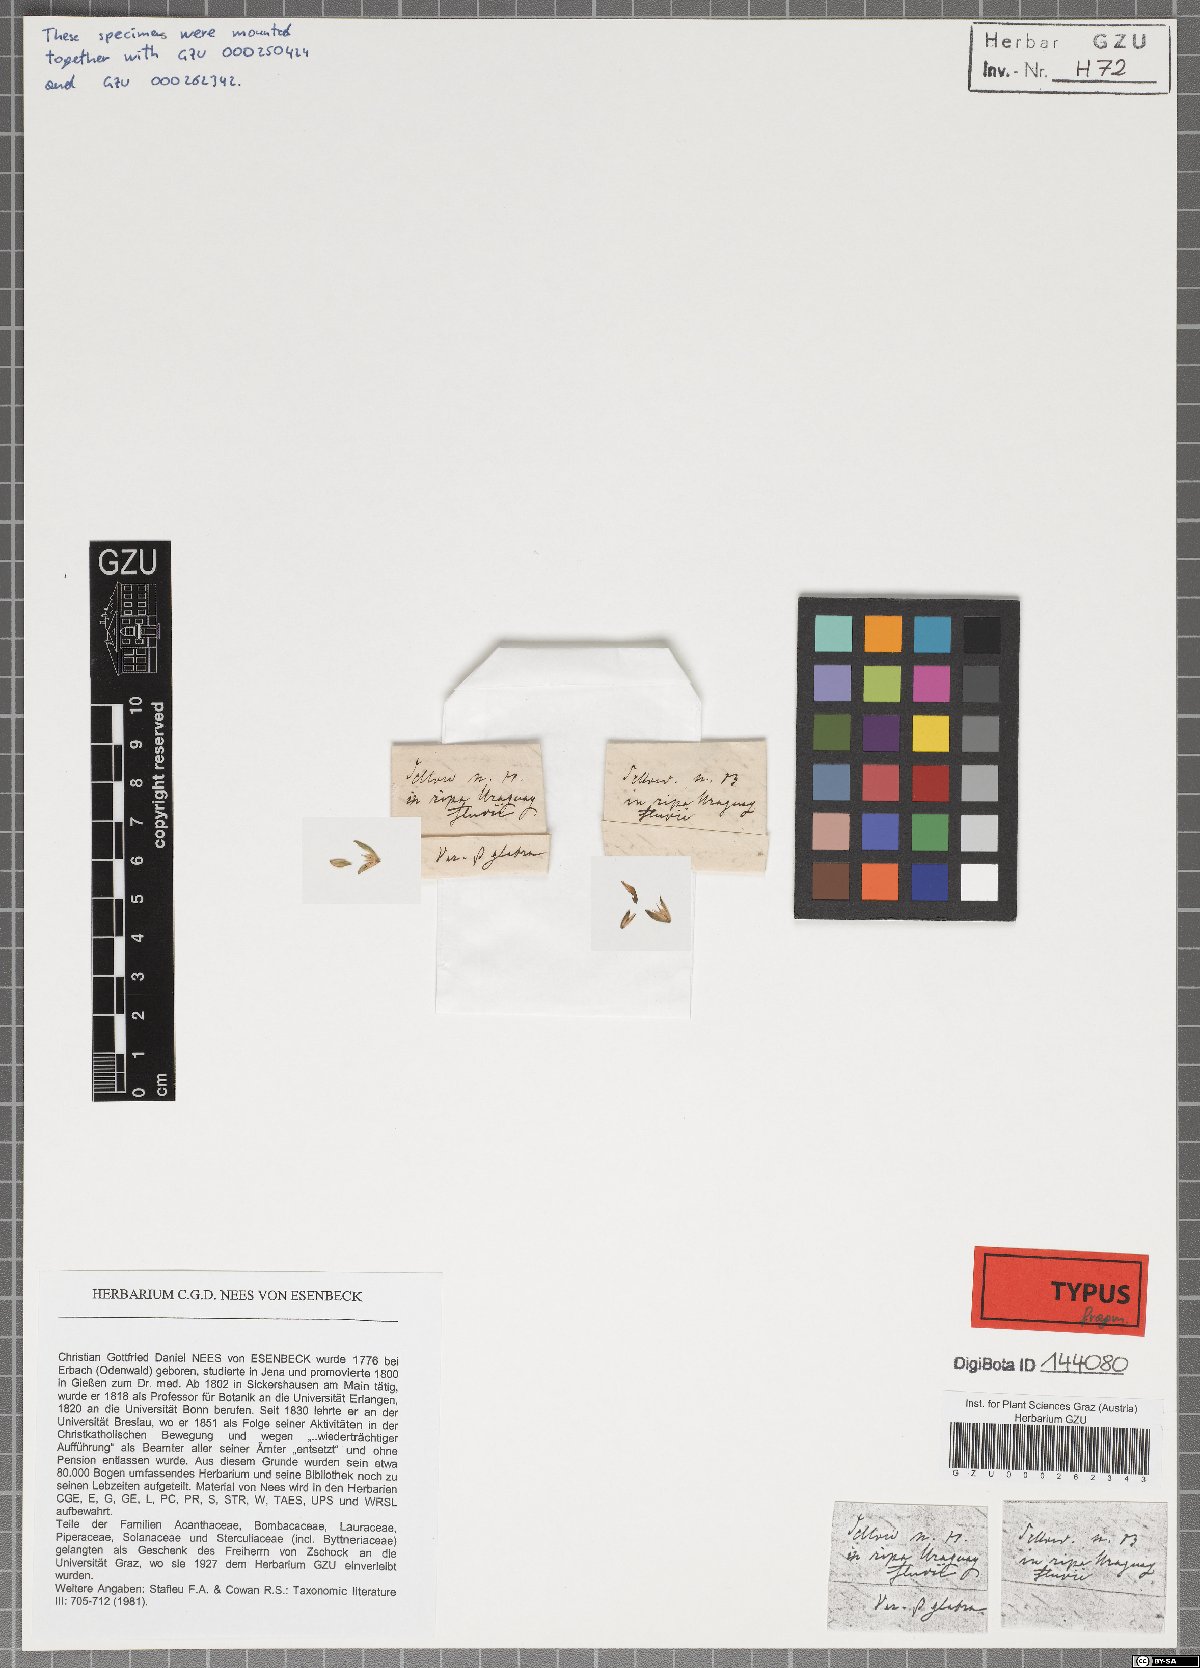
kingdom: Plantae
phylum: Tracheophyta
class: Magnoliopsida
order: Lamiales
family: Acanthaceae
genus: Dicliptera
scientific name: Dicliptera squarrosa
